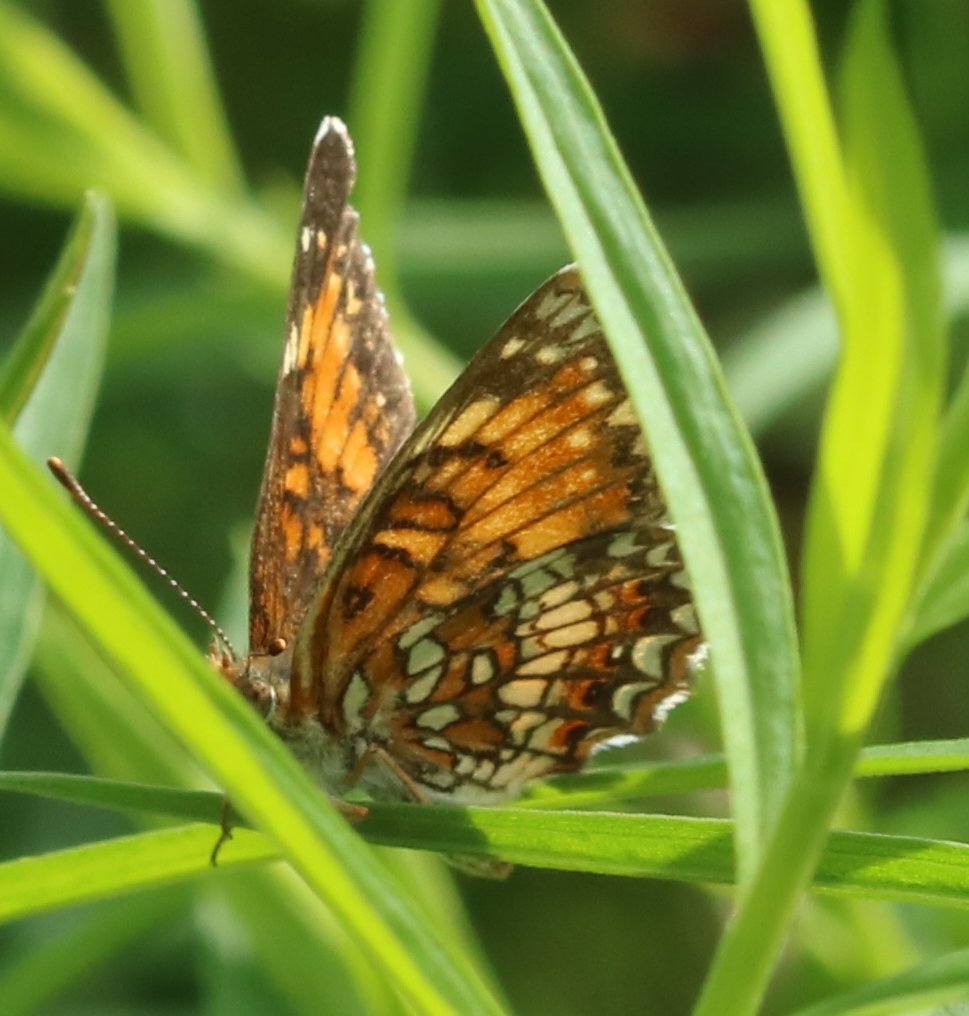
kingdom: Animalia
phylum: Arthropoda
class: Insecta
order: Lepidoptera
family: Nymphalidae
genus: Chlosyne
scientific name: Chlosyne harrisii
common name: Harris's Checkerspot
